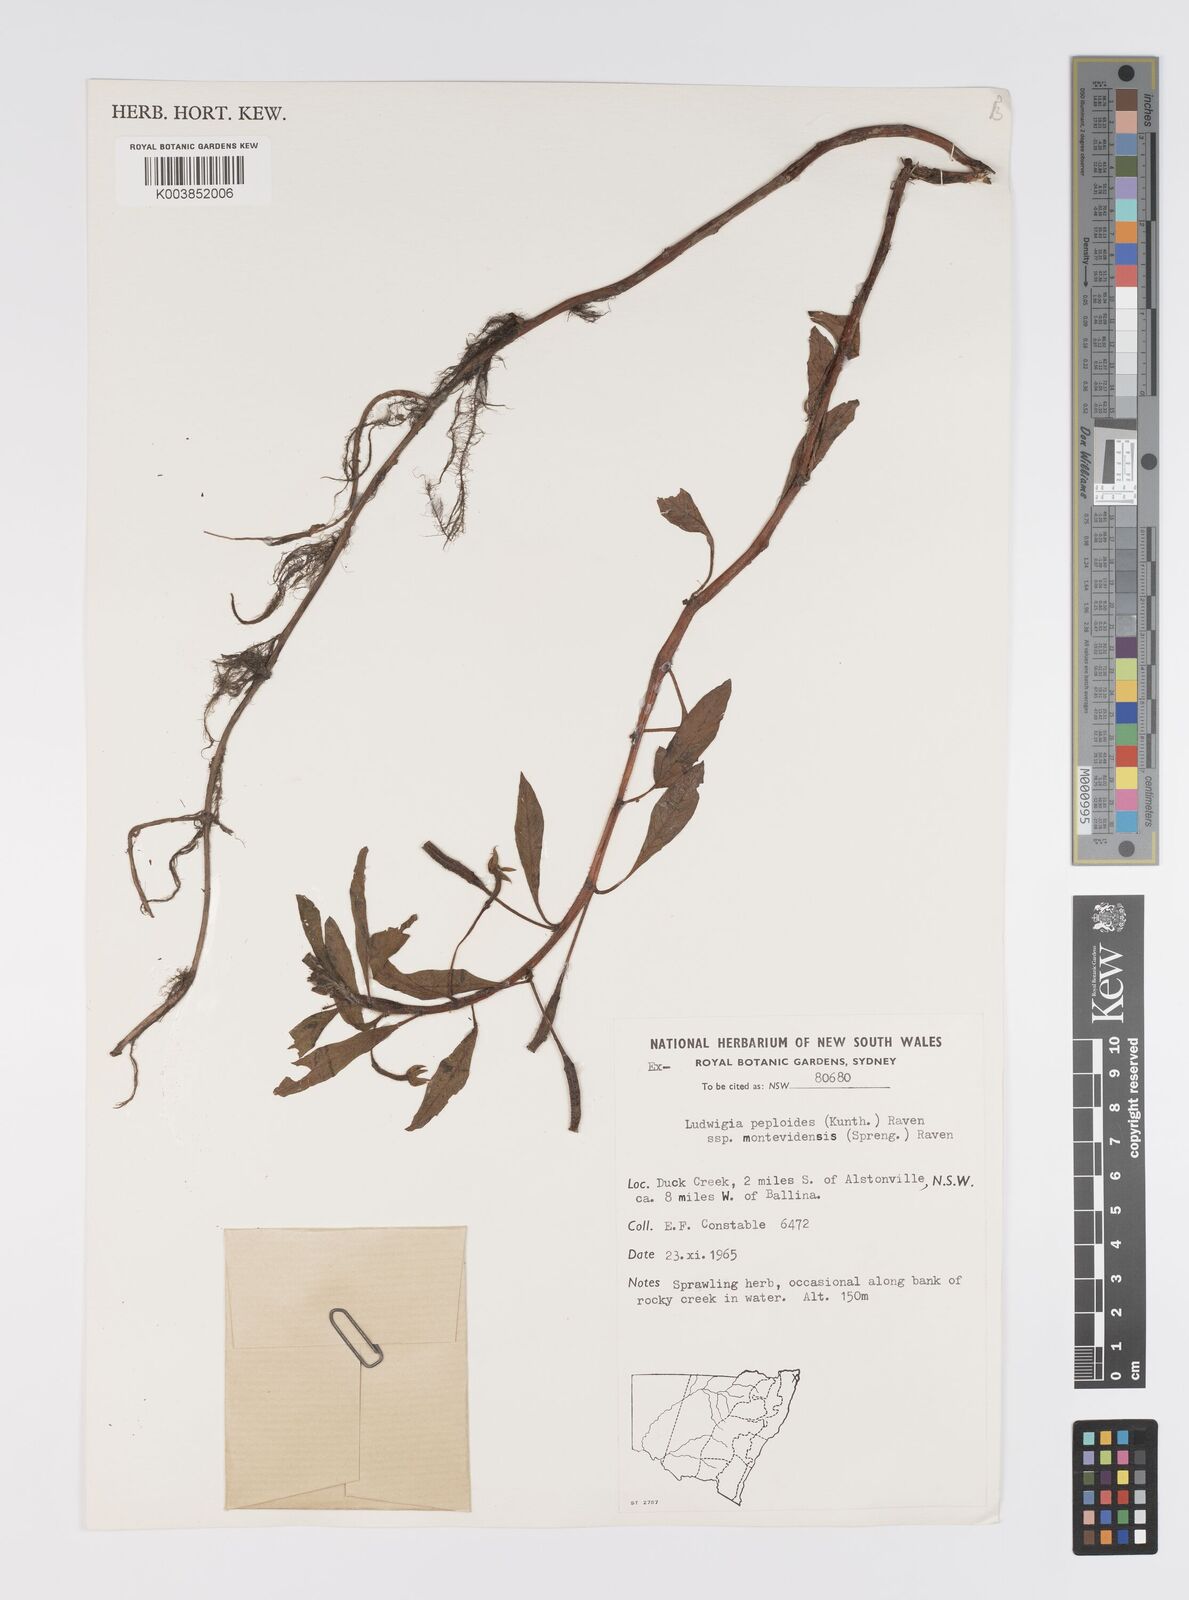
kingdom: Plantae
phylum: Tracheophyta
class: Magnoliopsida
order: Myrtales
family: Onagraceae
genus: Ludwigia
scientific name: Ludwigia peploides
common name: Floating primrose-willow
